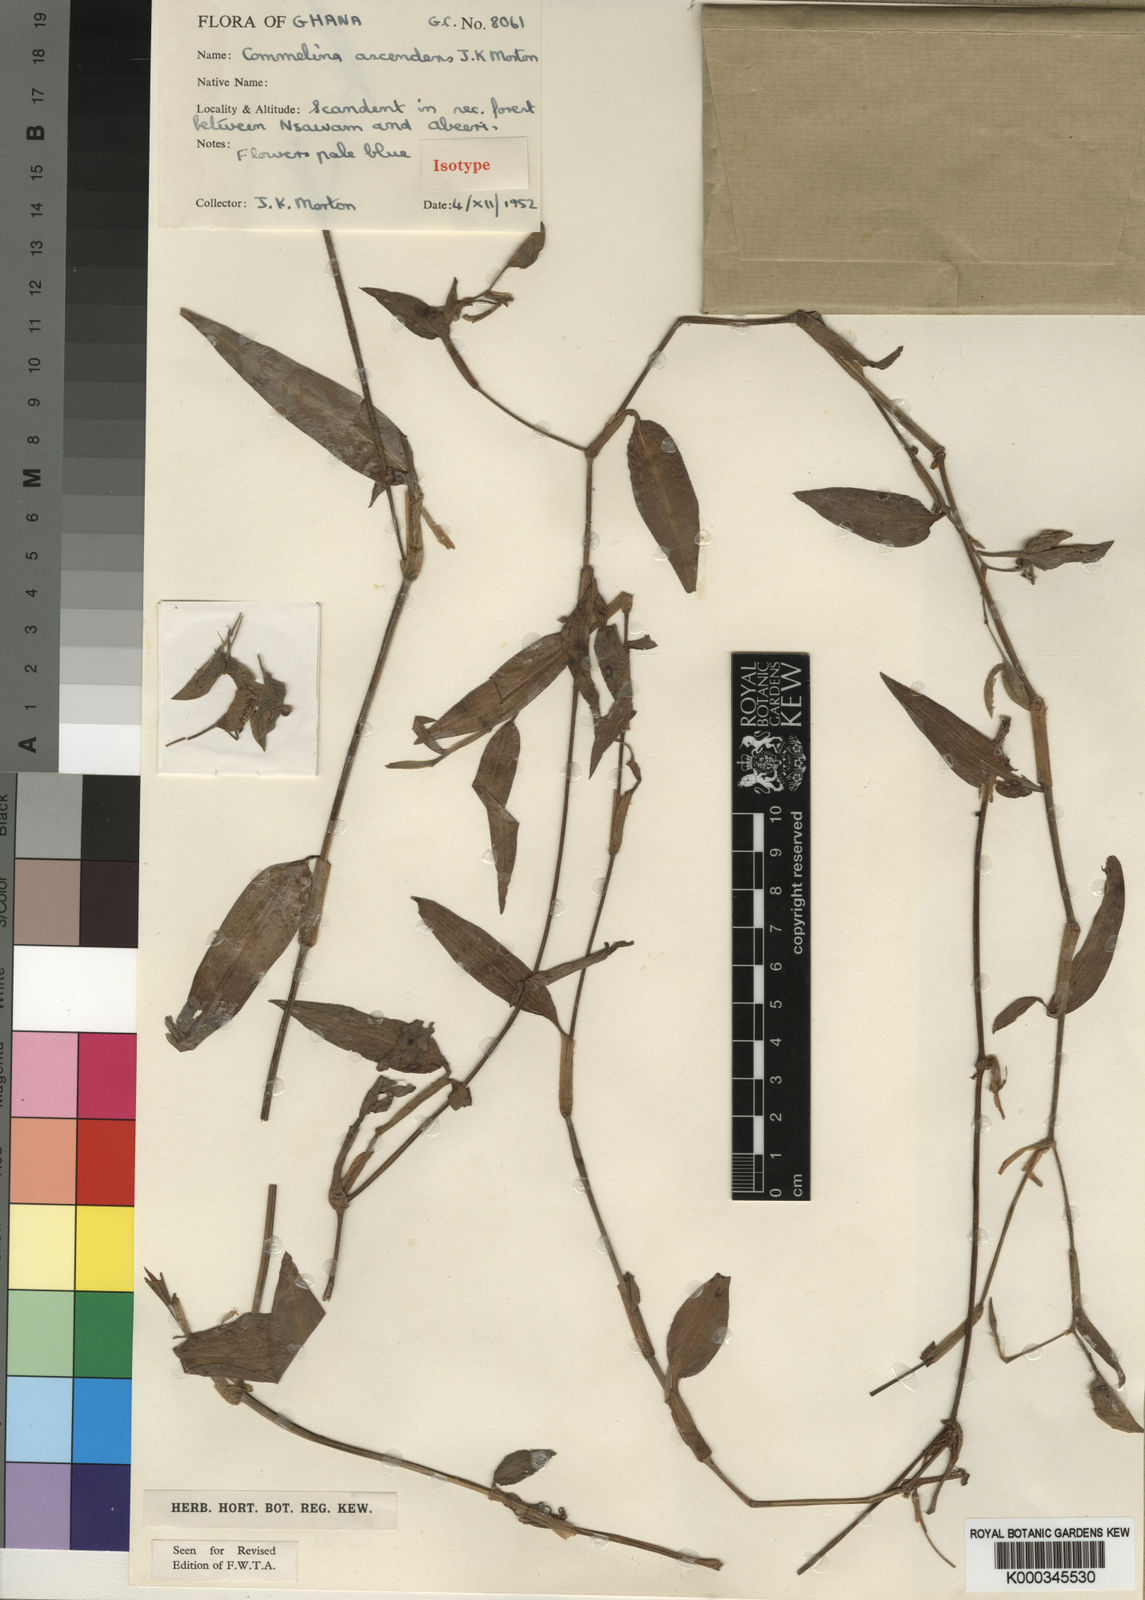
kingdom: Plantae
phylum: Tracheophyta
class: Liliopsida
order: Commelinales
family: Commelinaceae
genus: Commelina
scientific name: Commelina ascendens
